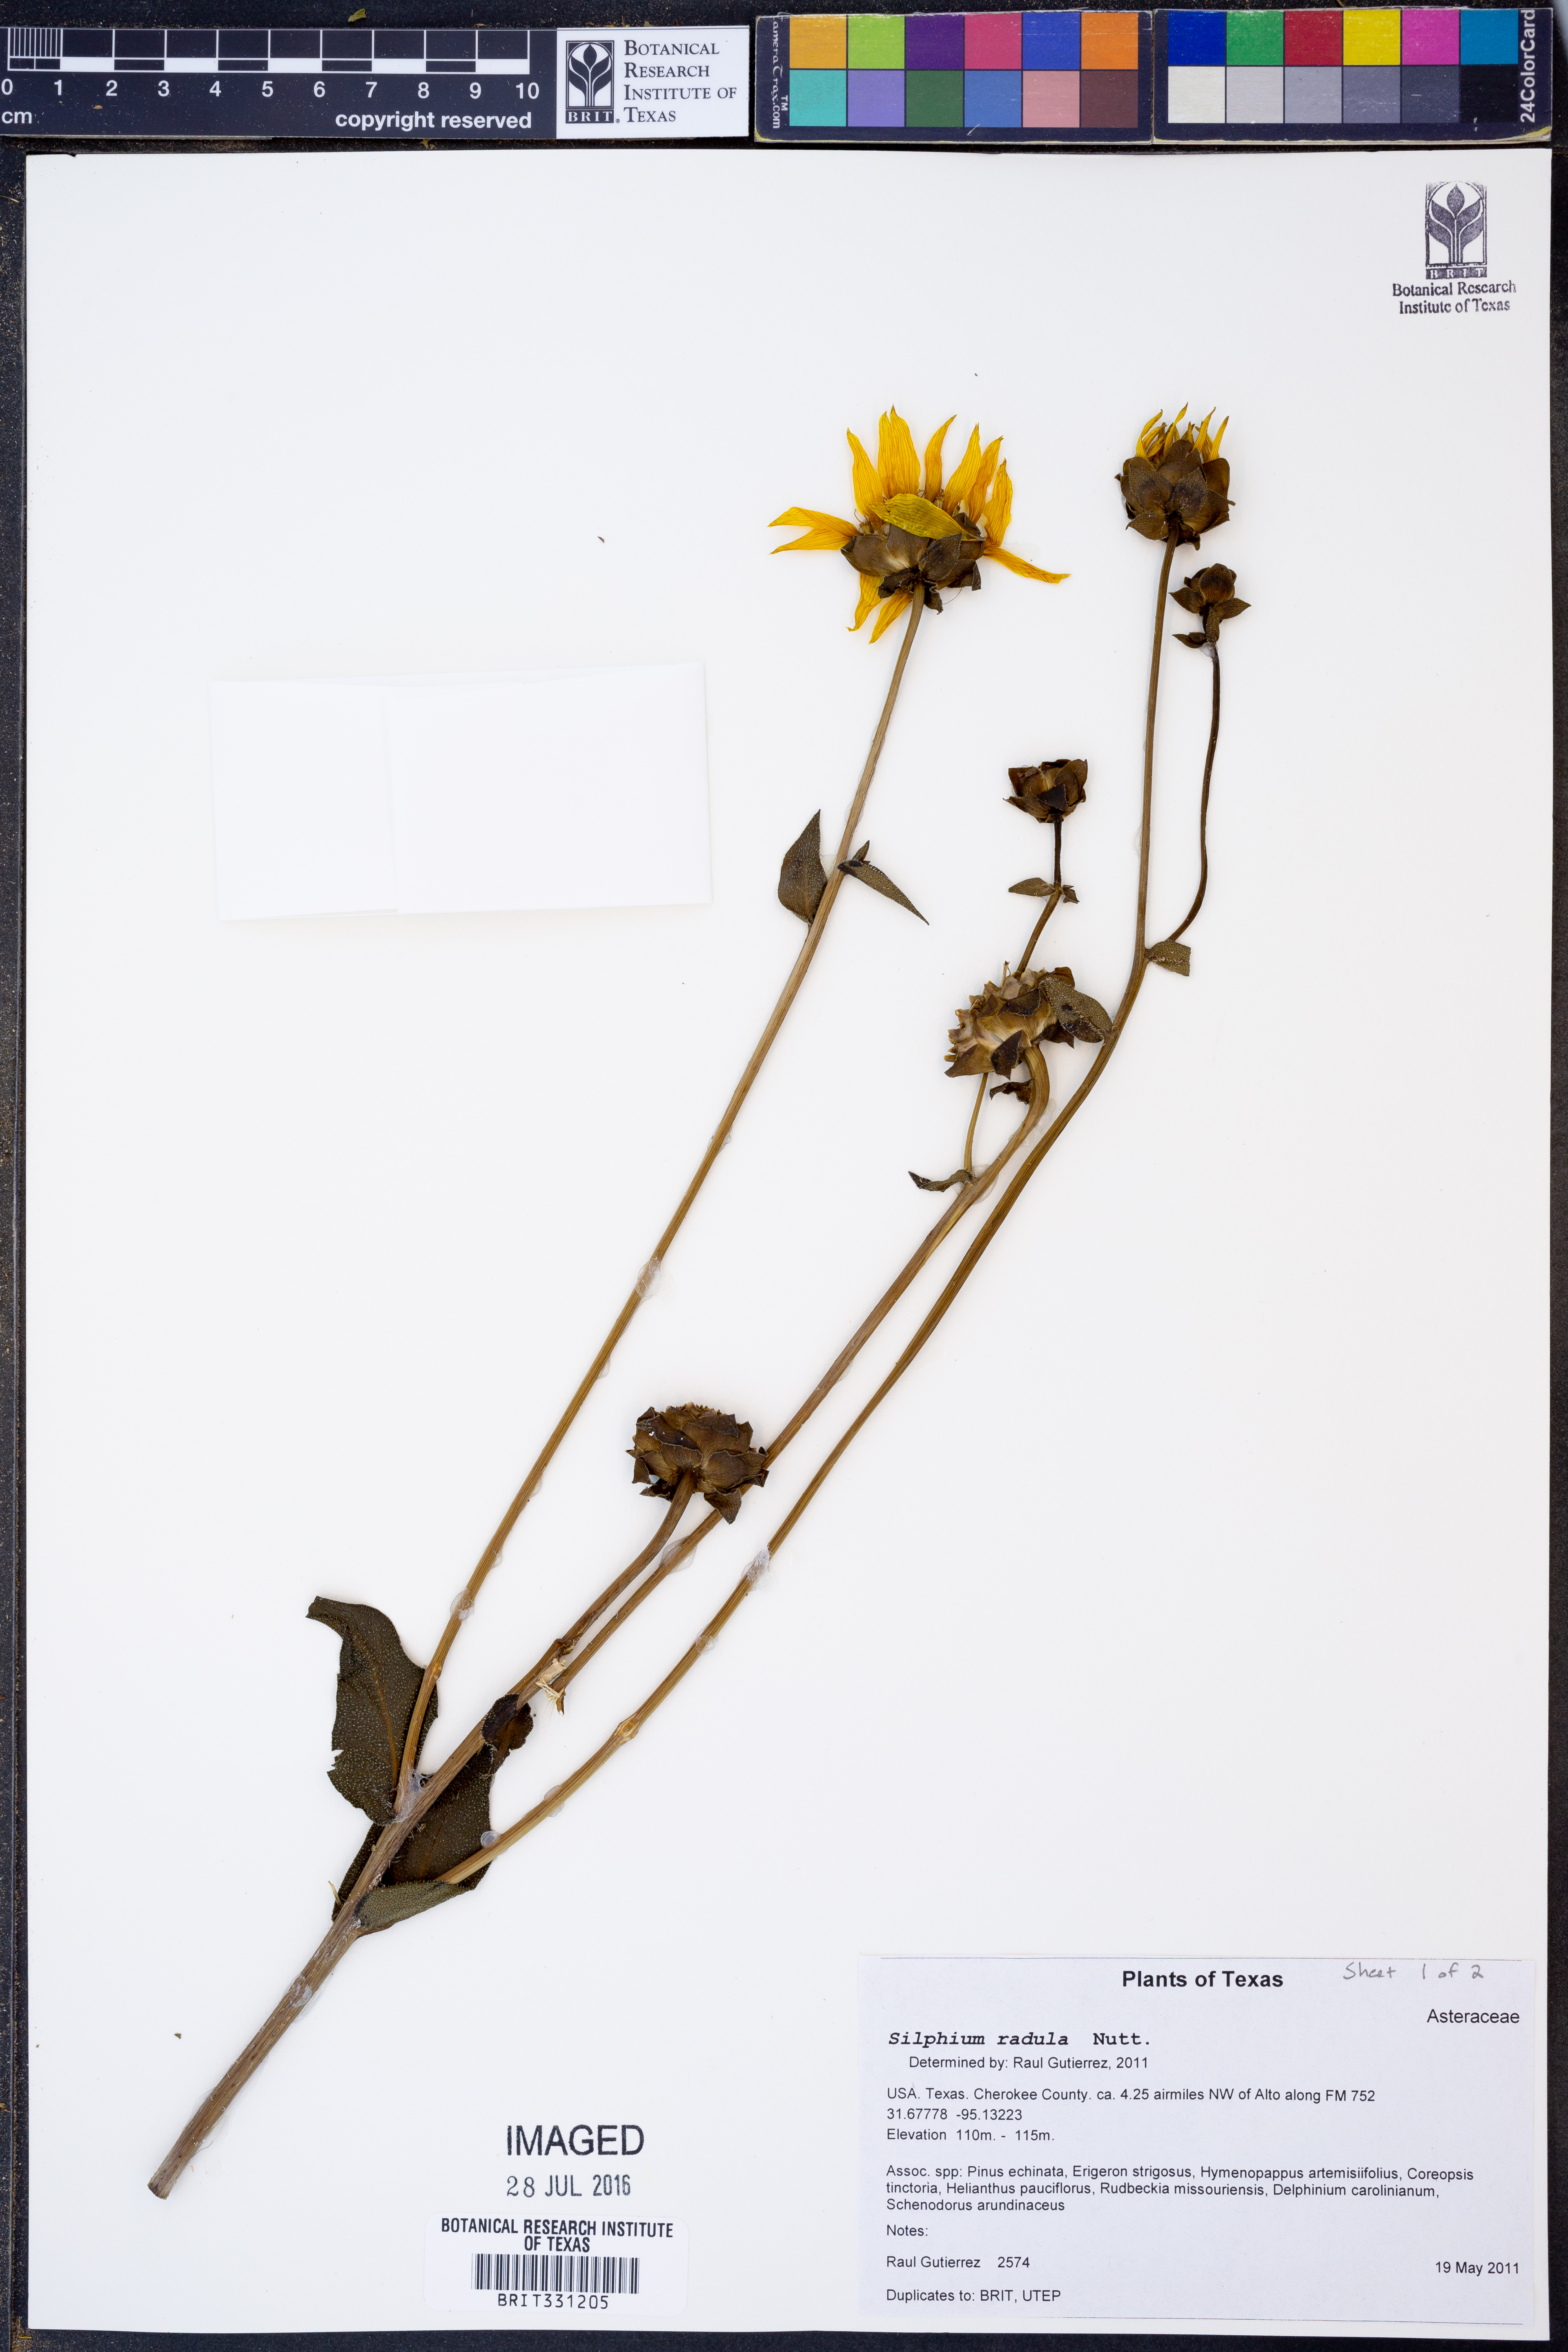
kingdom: Plantae
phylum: Tracheophyta
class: Magnoliopsida
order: Asterales
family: Asteraceae
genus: Silphium
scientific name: Silphium radula
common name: Roughleaf rosinweed
